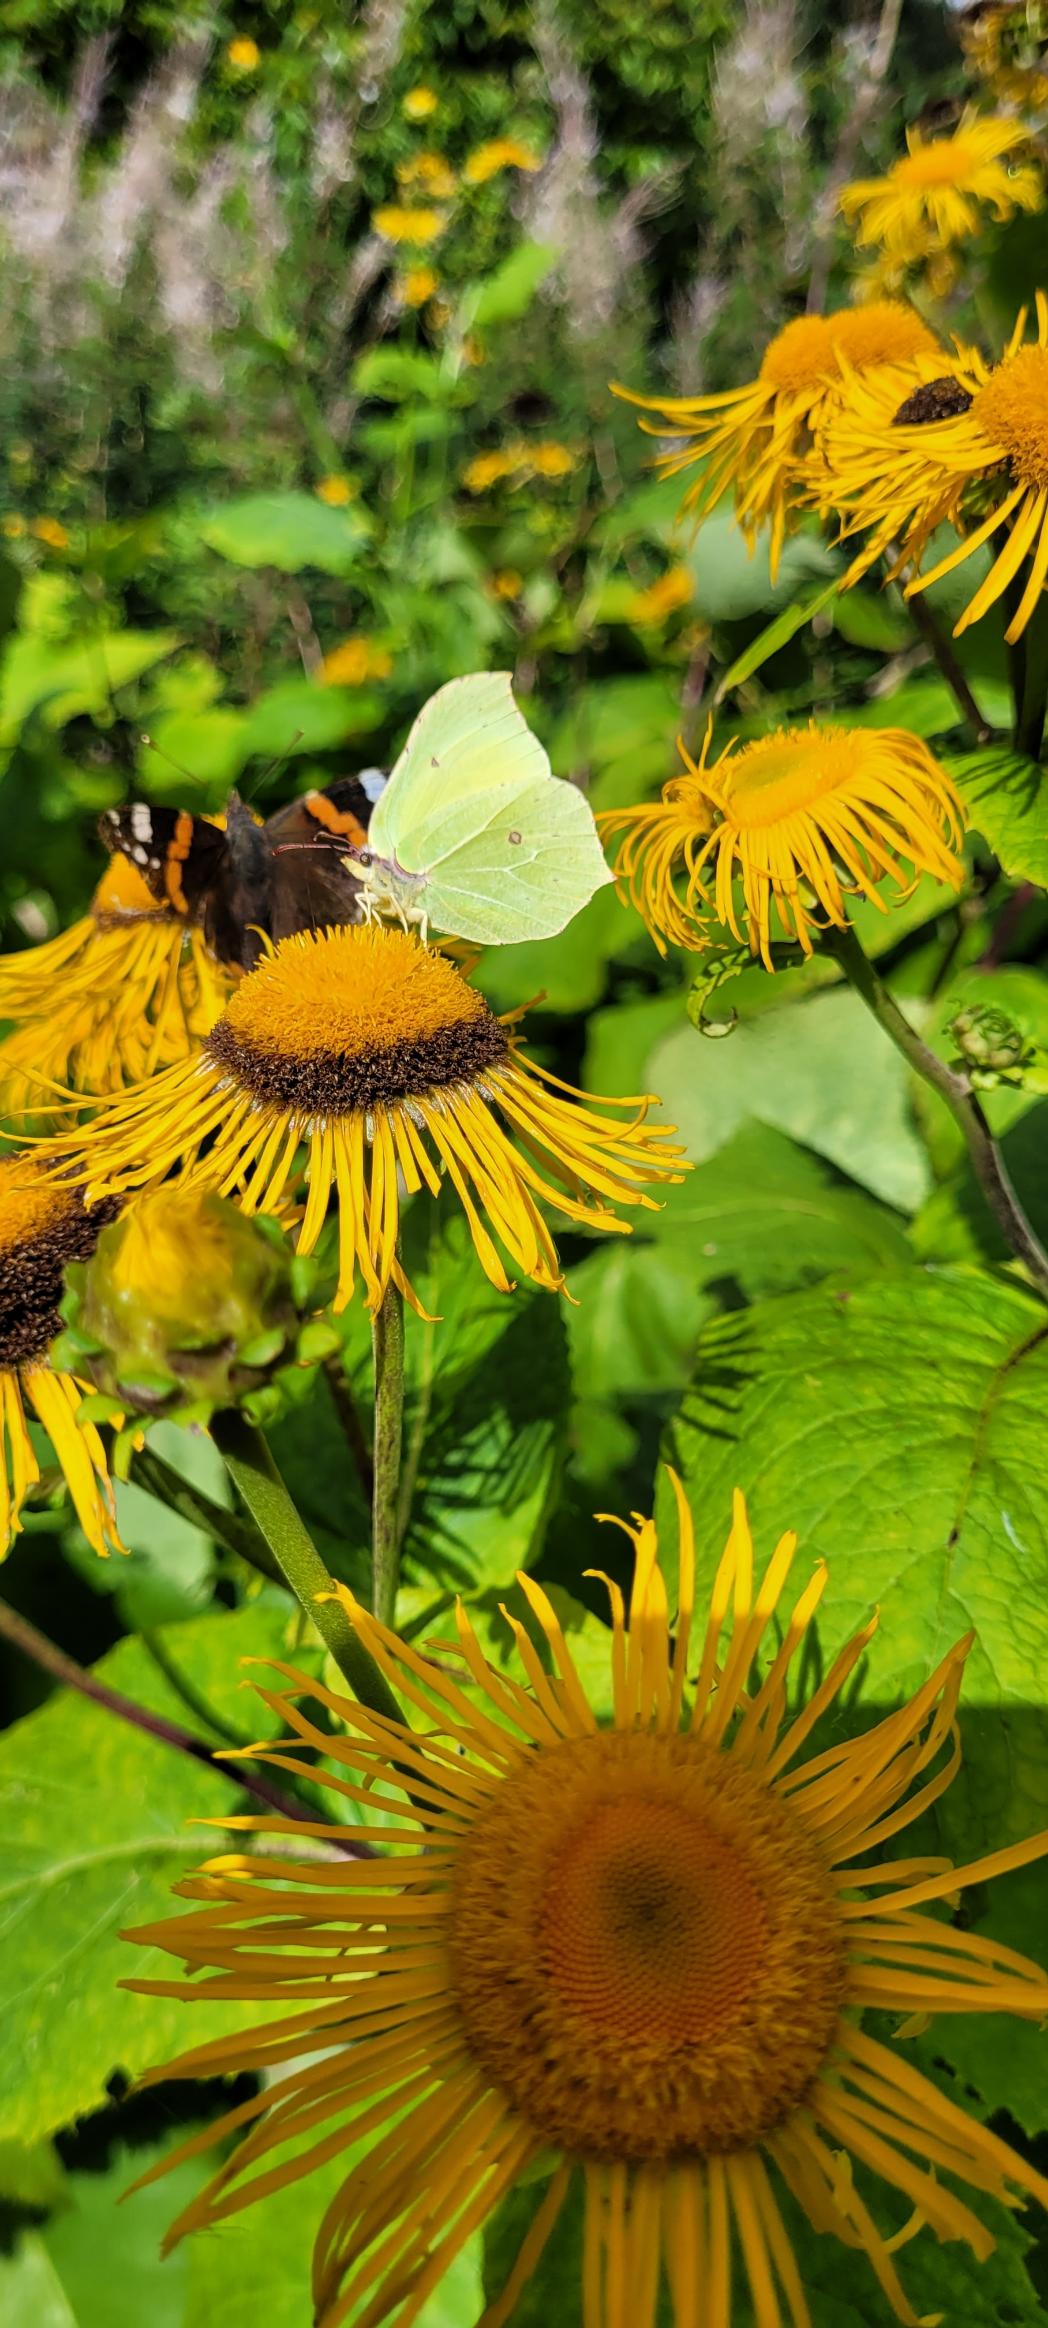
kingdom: Animalia
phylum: Arthropoda
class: Insecta
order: Lepidoptera
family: Pieridae
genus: Gonepteryx
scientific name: Gonepteryx rhamni
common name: Citronsommerfugl
